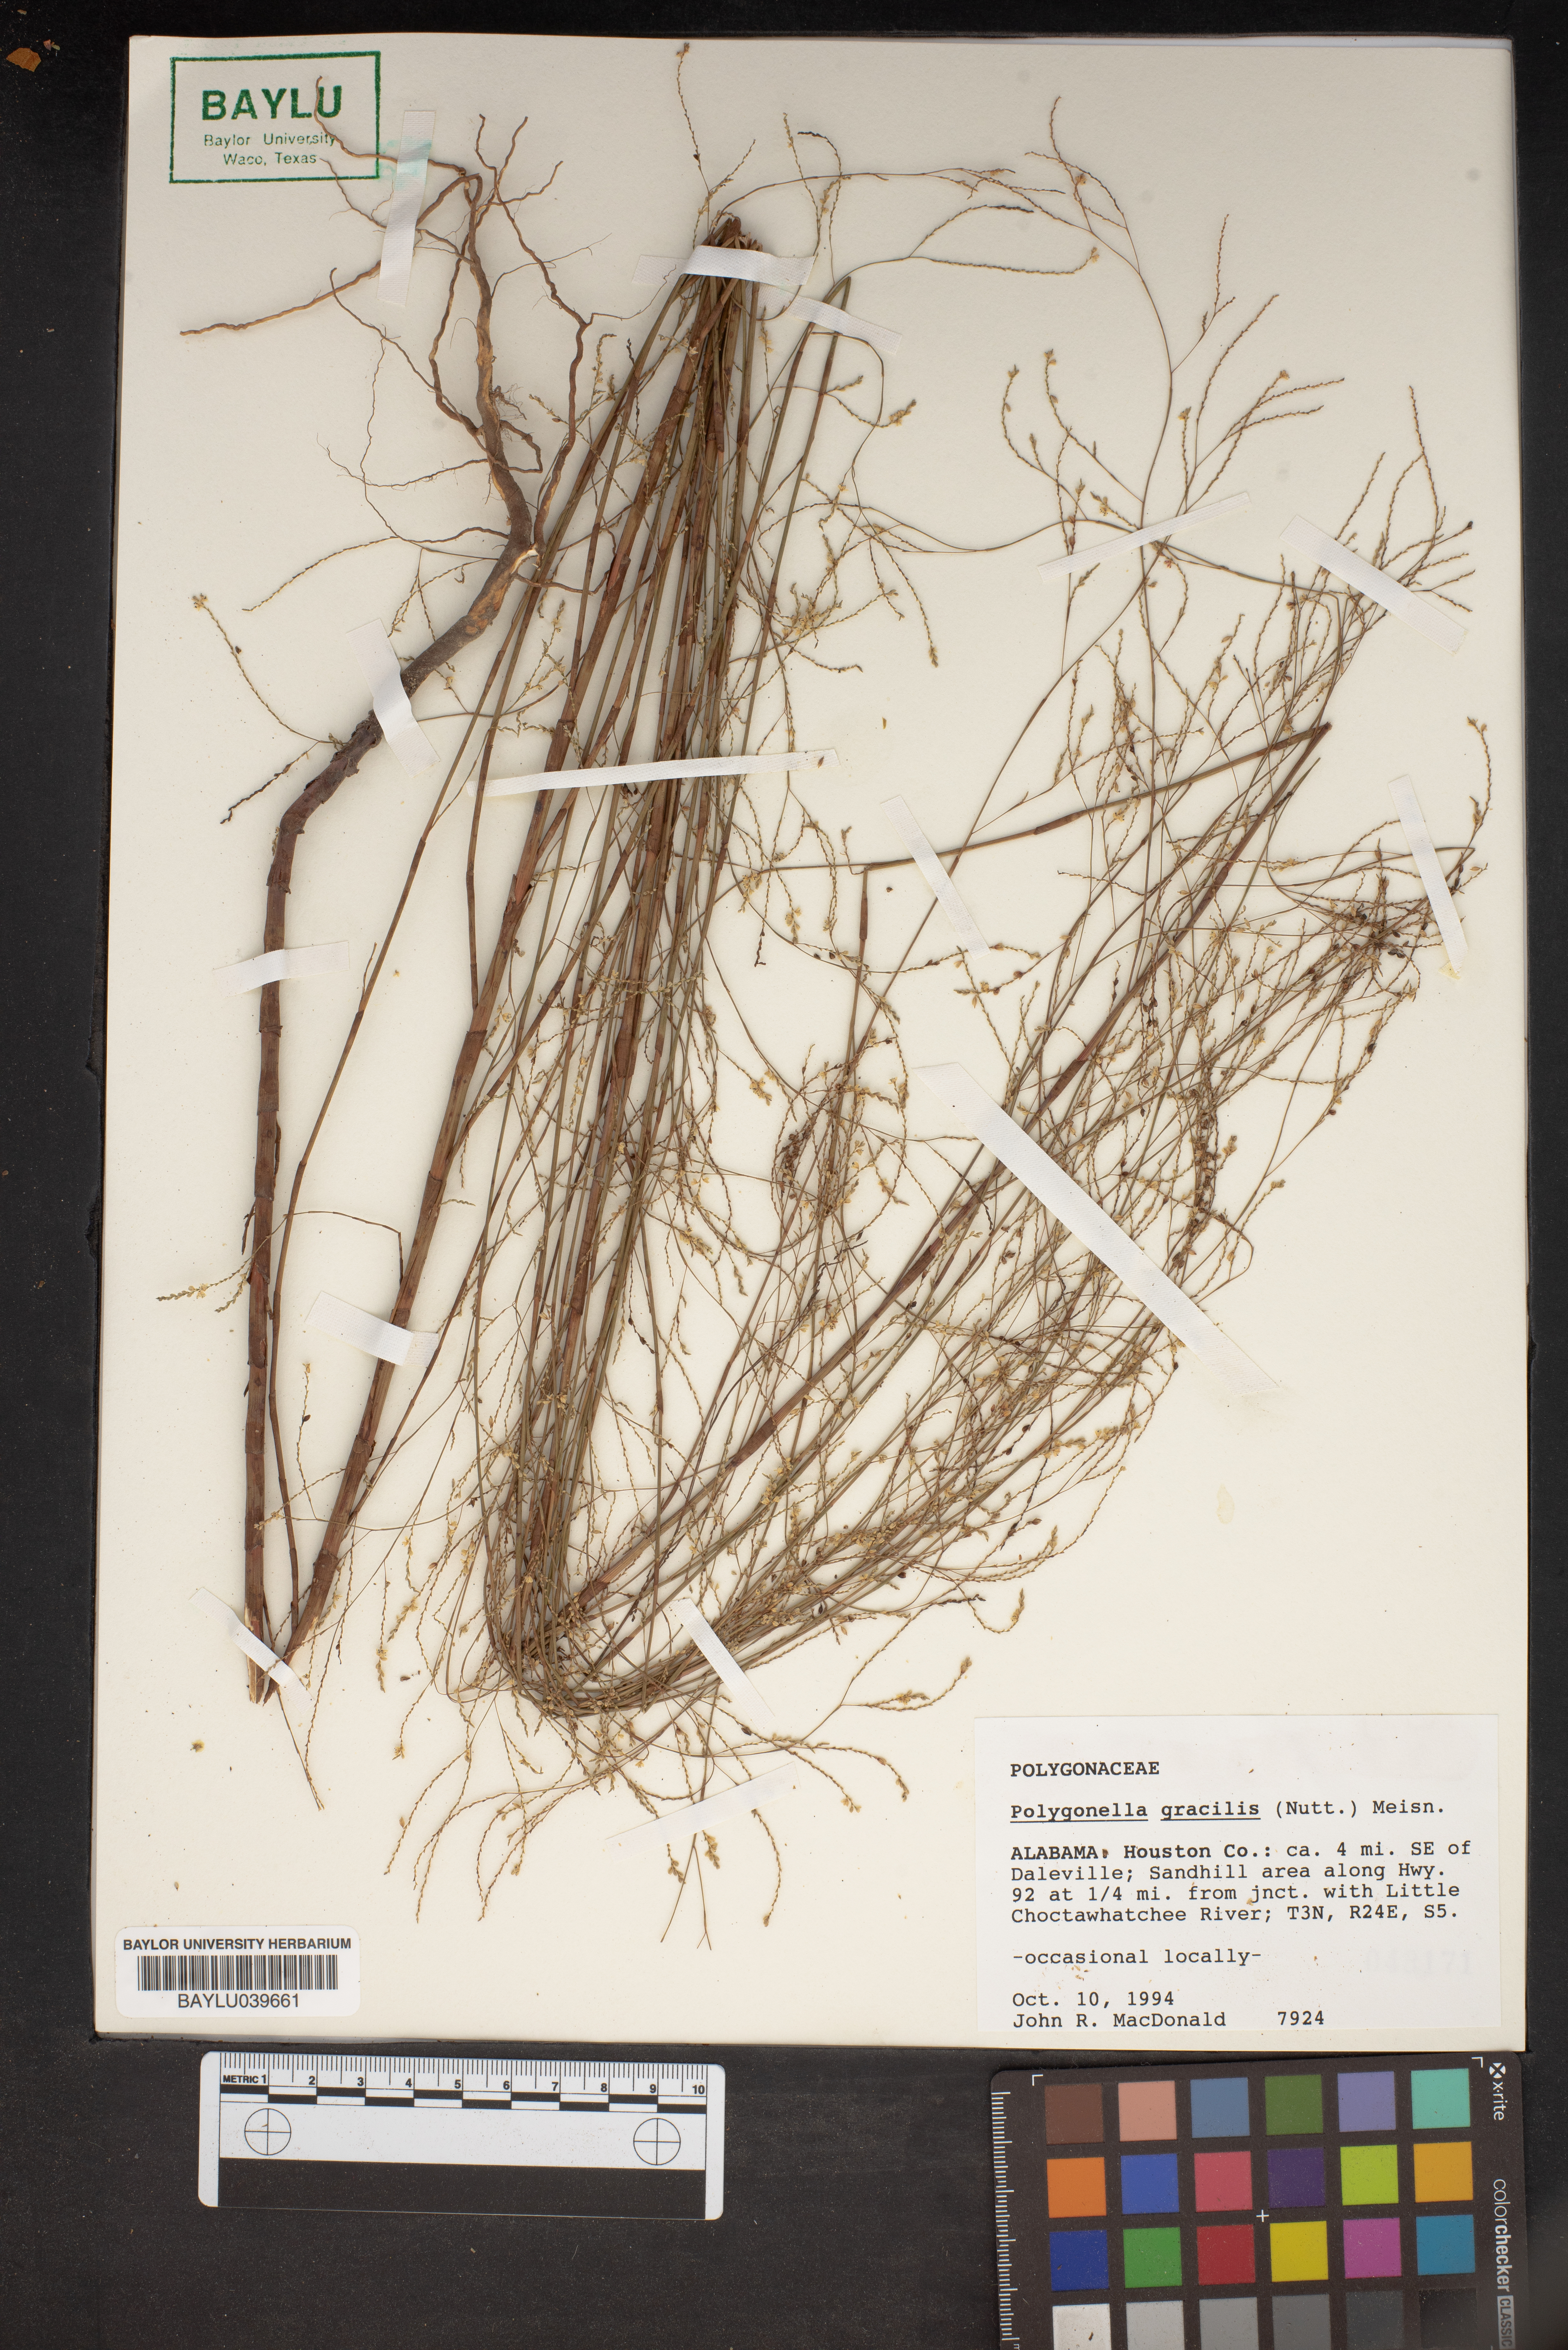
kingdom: Plantae
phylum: Tracheophyta
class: Magnoliopsida
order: Caryophyllales
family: Polygonaceae
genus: Polygonella
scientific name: Polygonella gracilis
